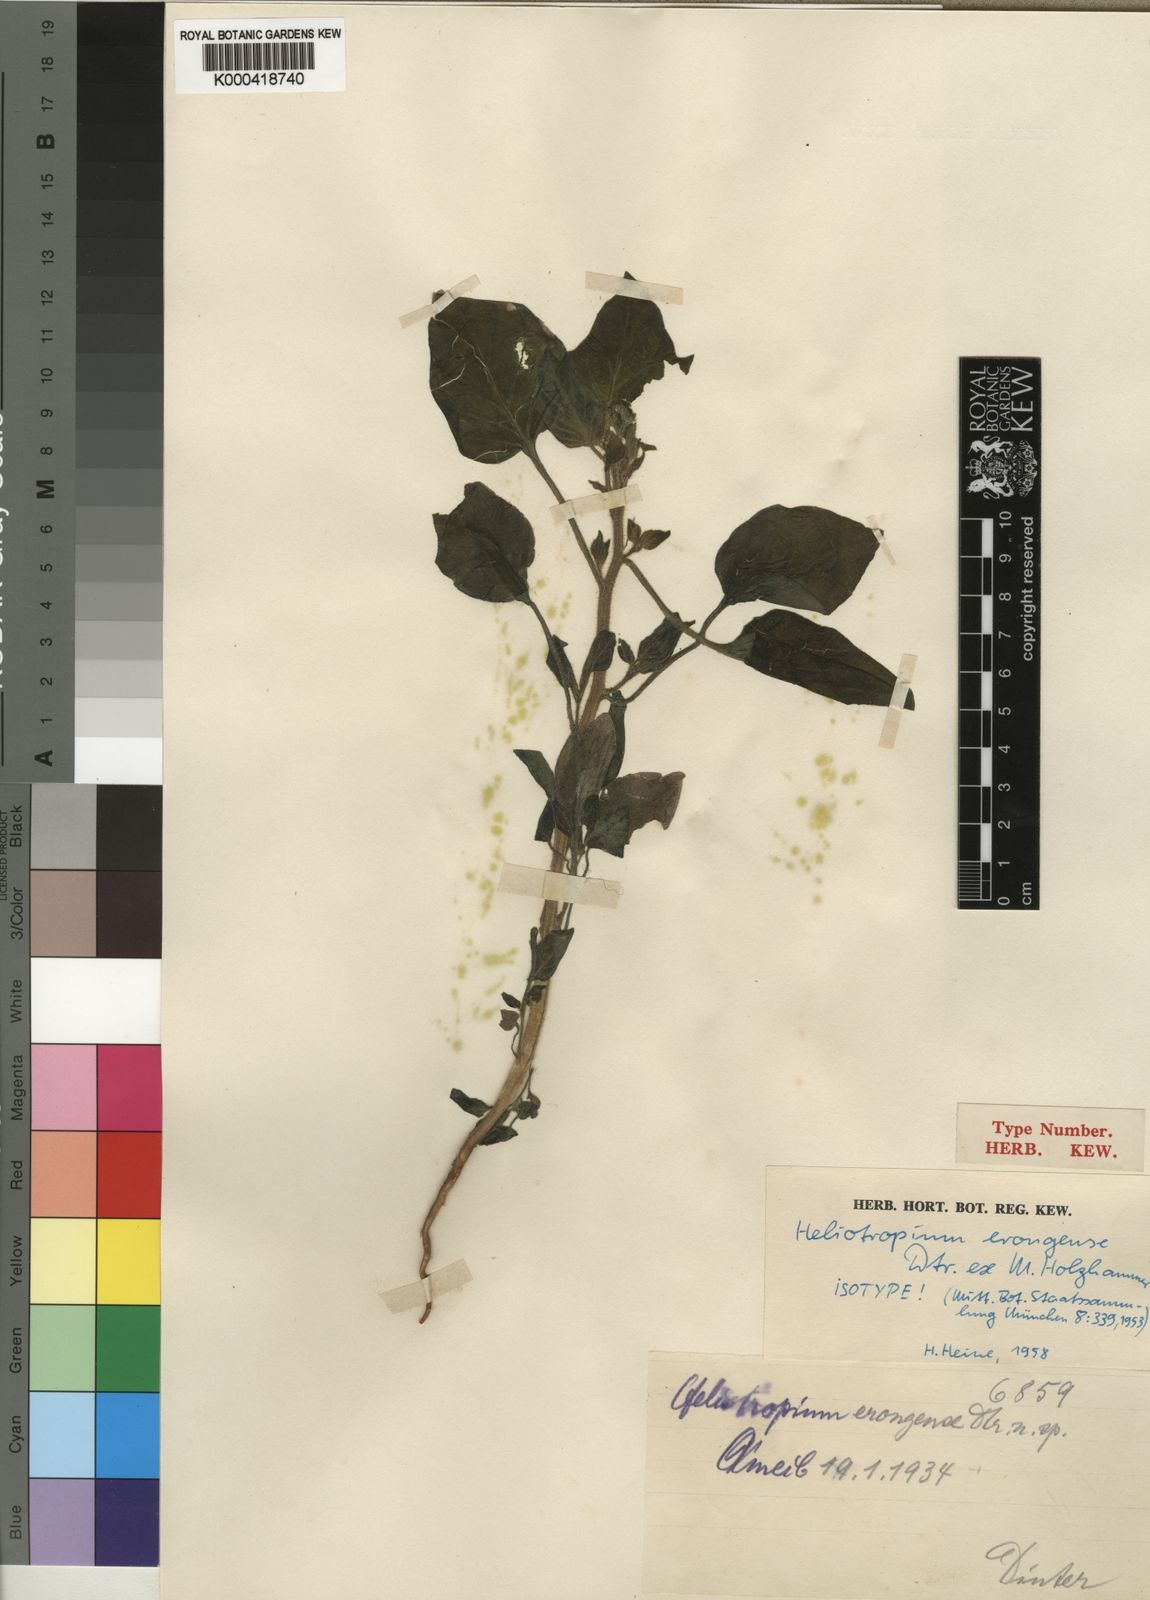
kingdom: Plantae
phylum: Tracheophyta
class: Magnoliopsida
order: Boraginales
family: Heliotropiaceae
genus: Heliotropium
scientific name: Heliotropium
